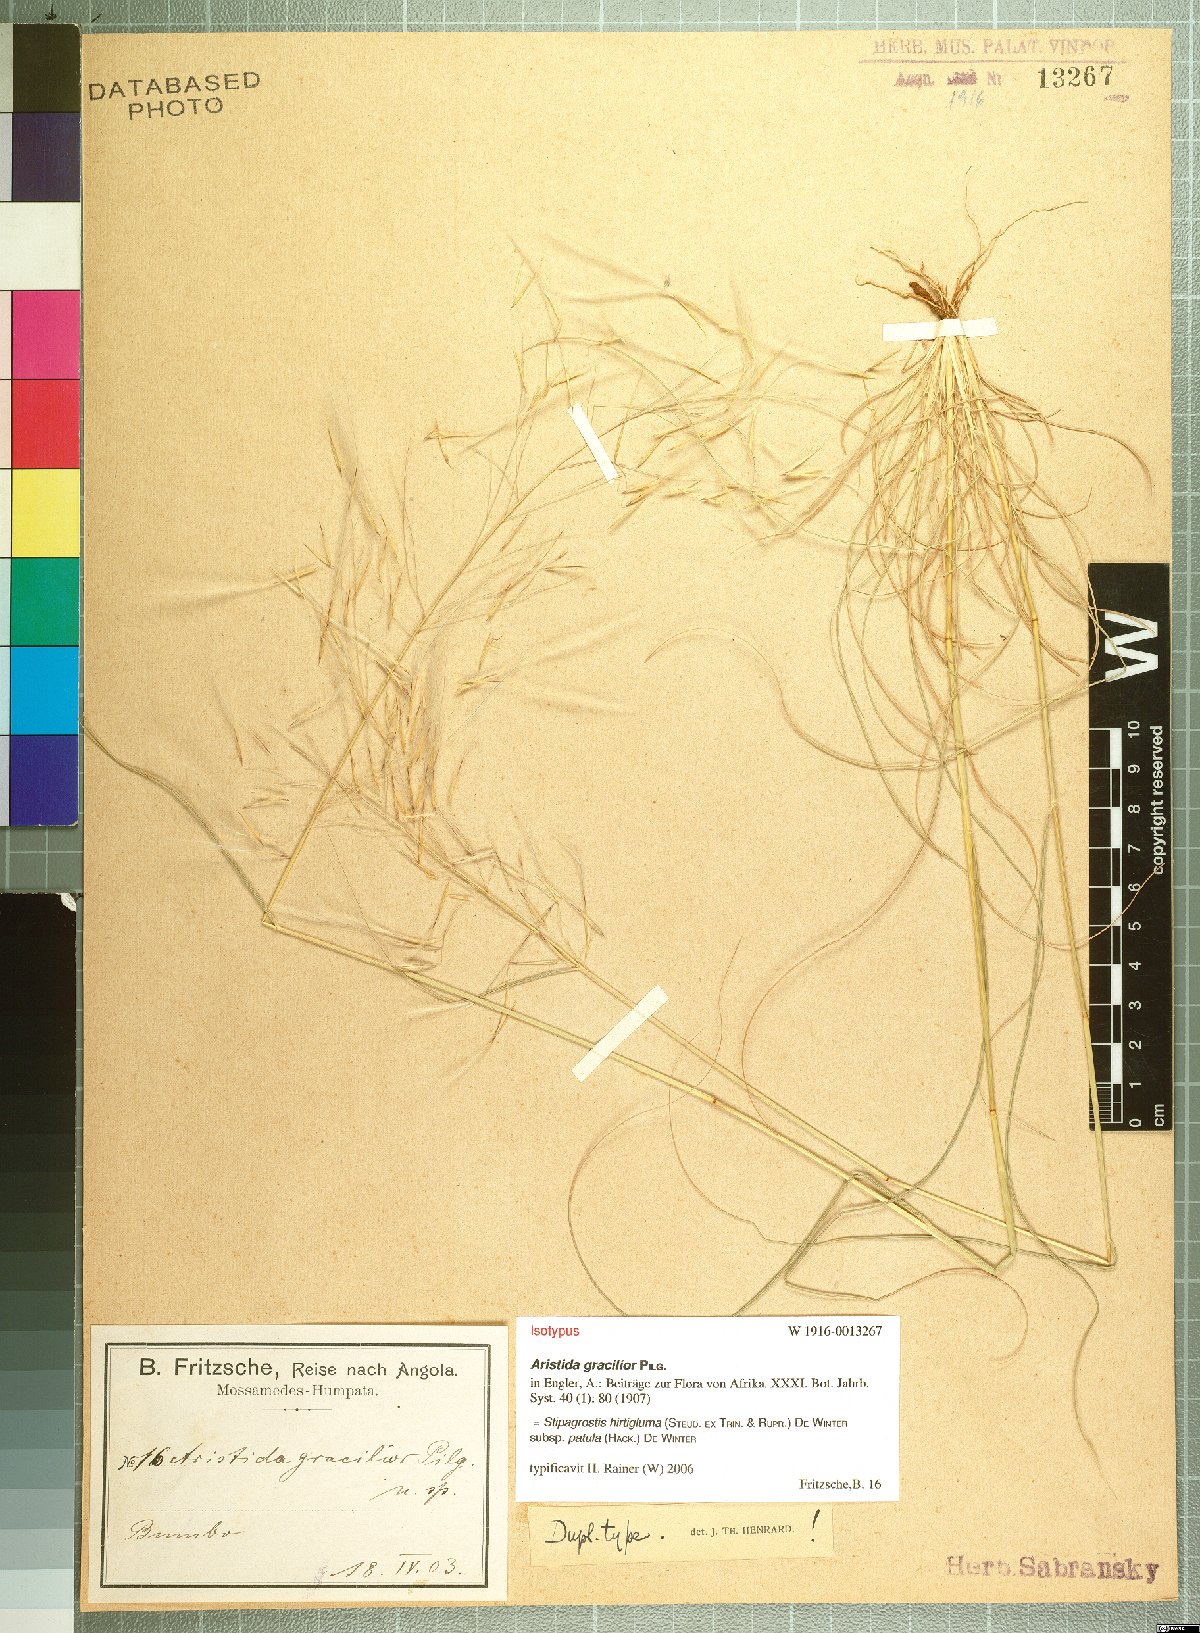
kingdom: Plantae
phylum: Tracheophyta
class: Liliopsida
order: Poales
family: Poaceae
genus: Stipagrostis
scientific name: Stipagrostis hirtigluma
